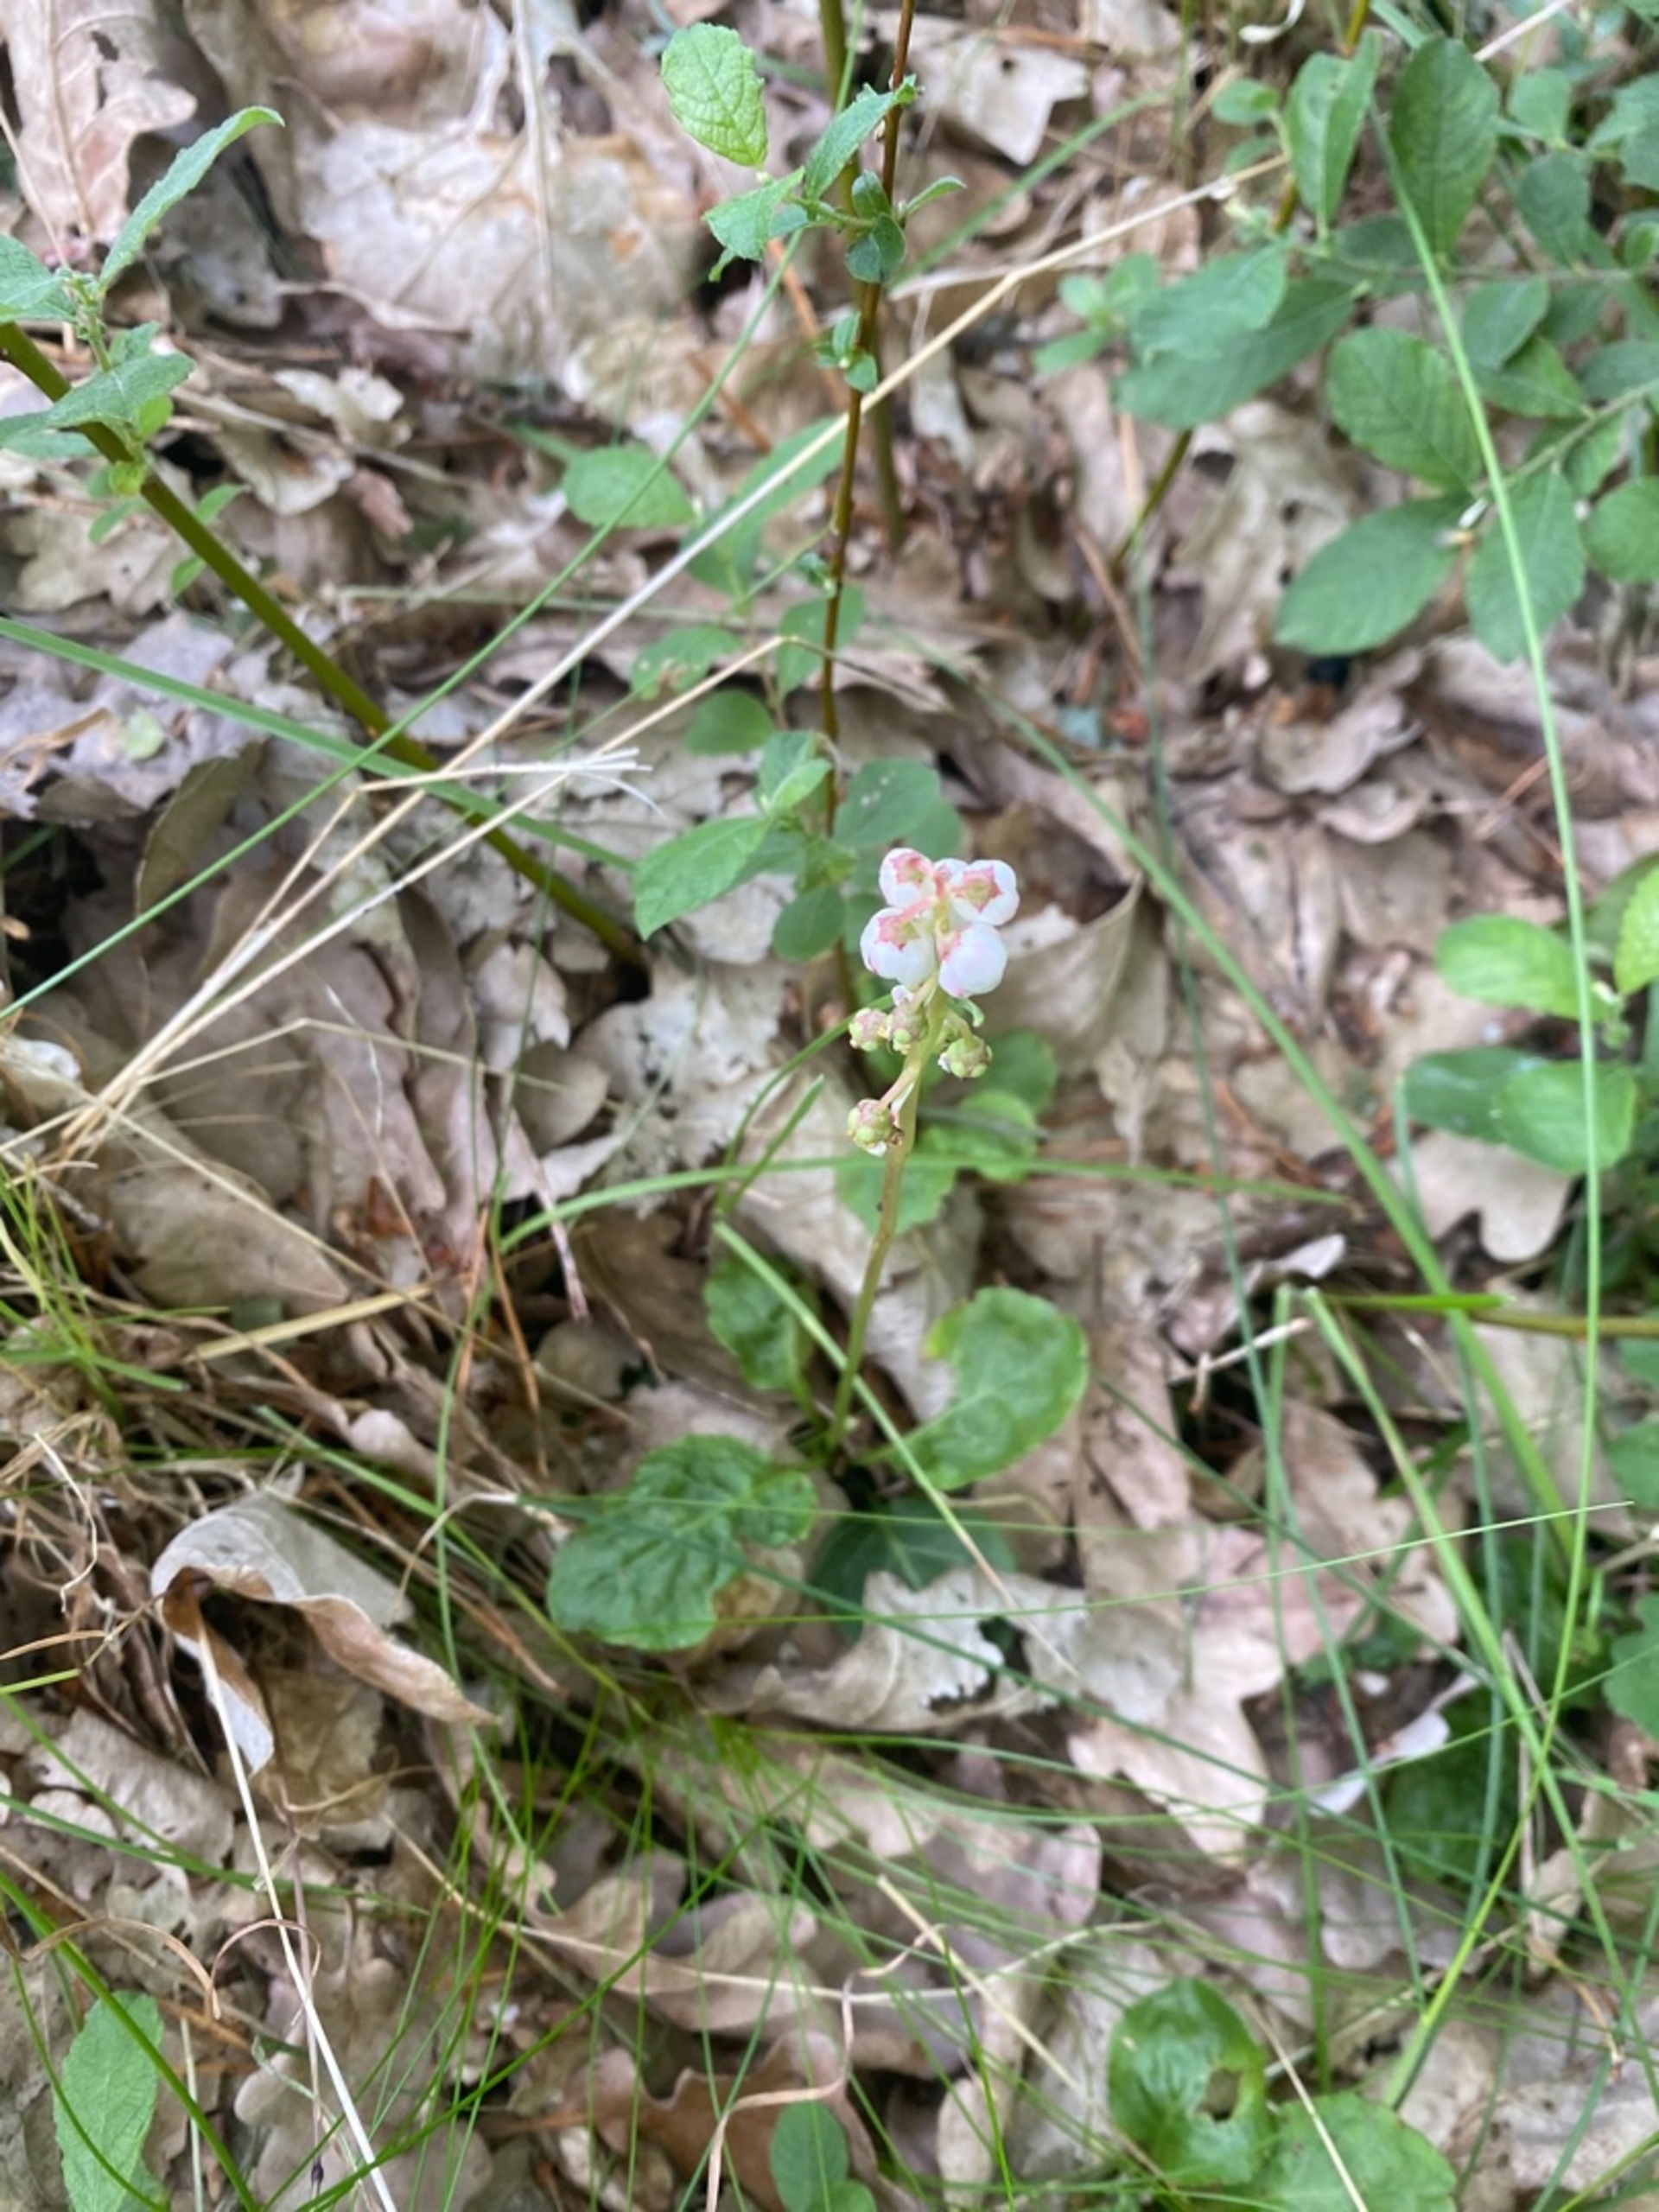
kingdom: Plantae
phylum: Tracheophyta
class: Magnoliopsida
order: Ericales
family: Ericaceae
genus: Pyrola
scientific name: Pyrola minor
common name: Liden vintergrøn
